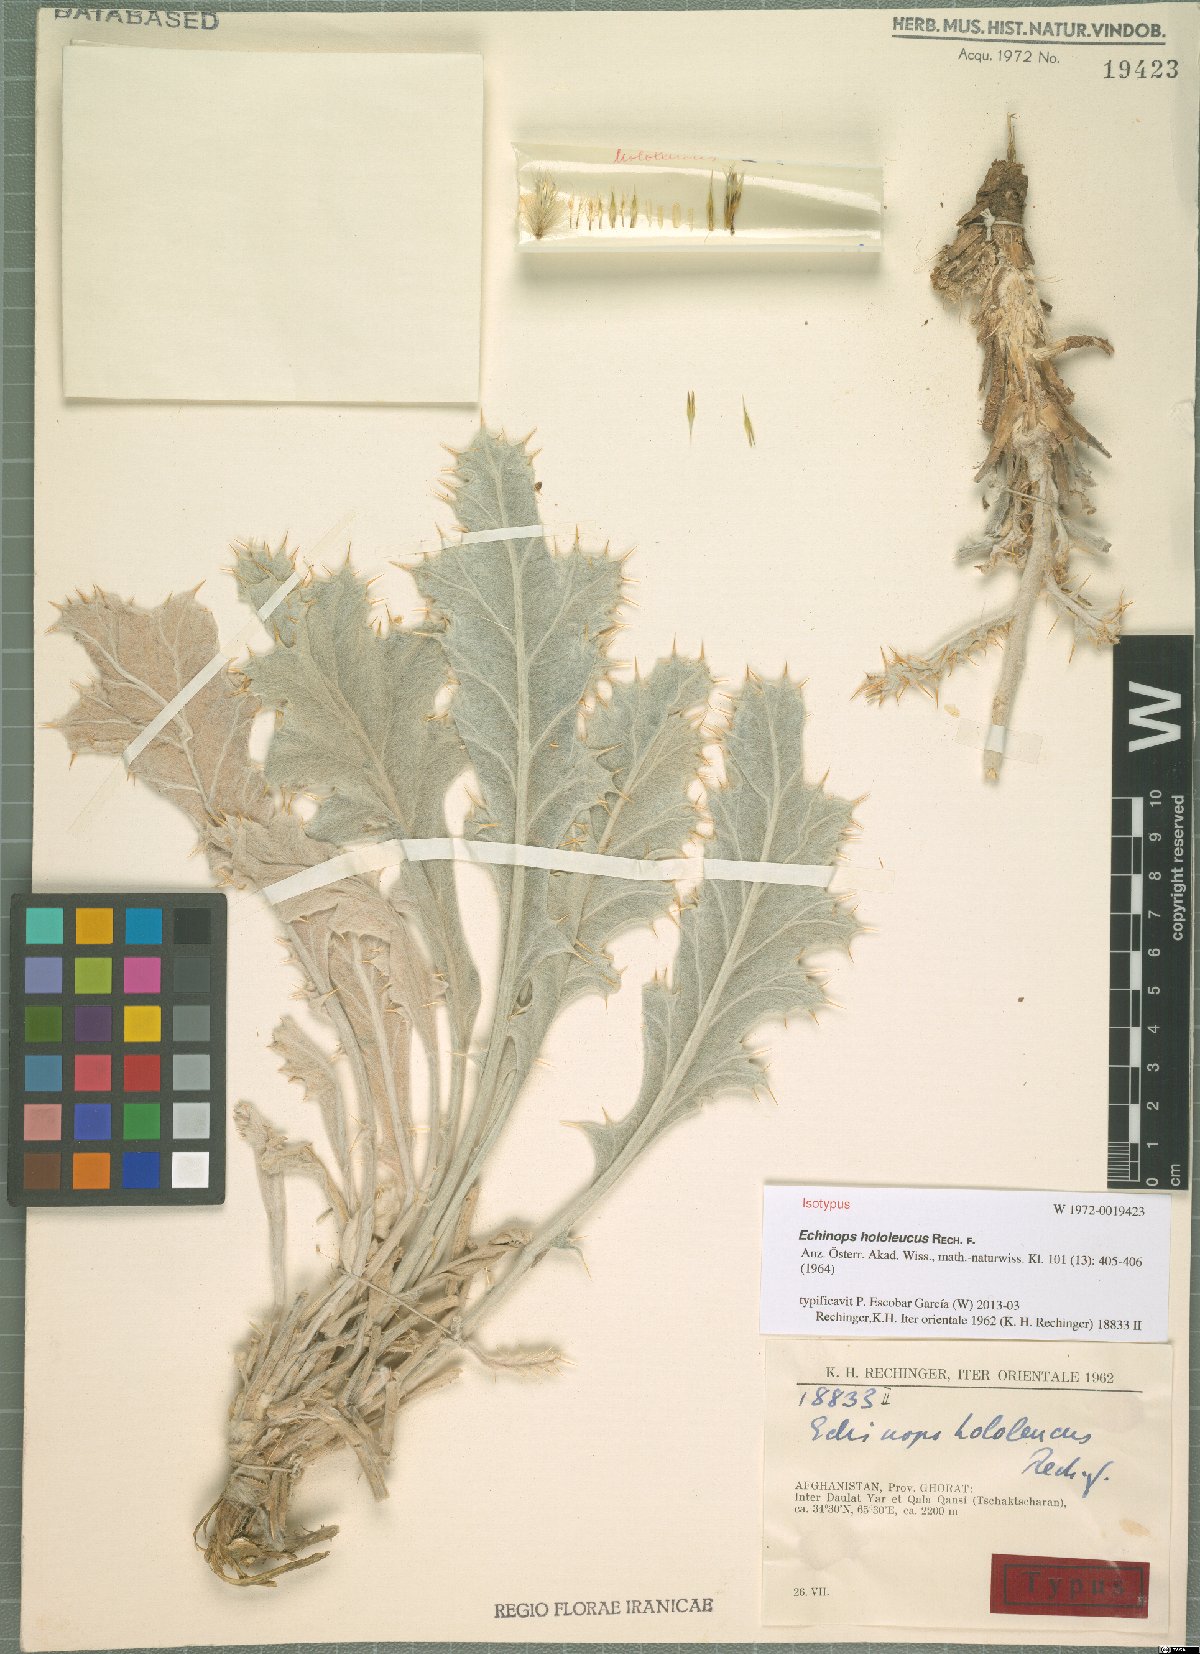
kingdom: Plantae
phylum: Tracheophyta
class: Magnoliopsida
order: Asterales
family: Asteraceae
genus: Echinops
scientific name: Echinops hololeucus
